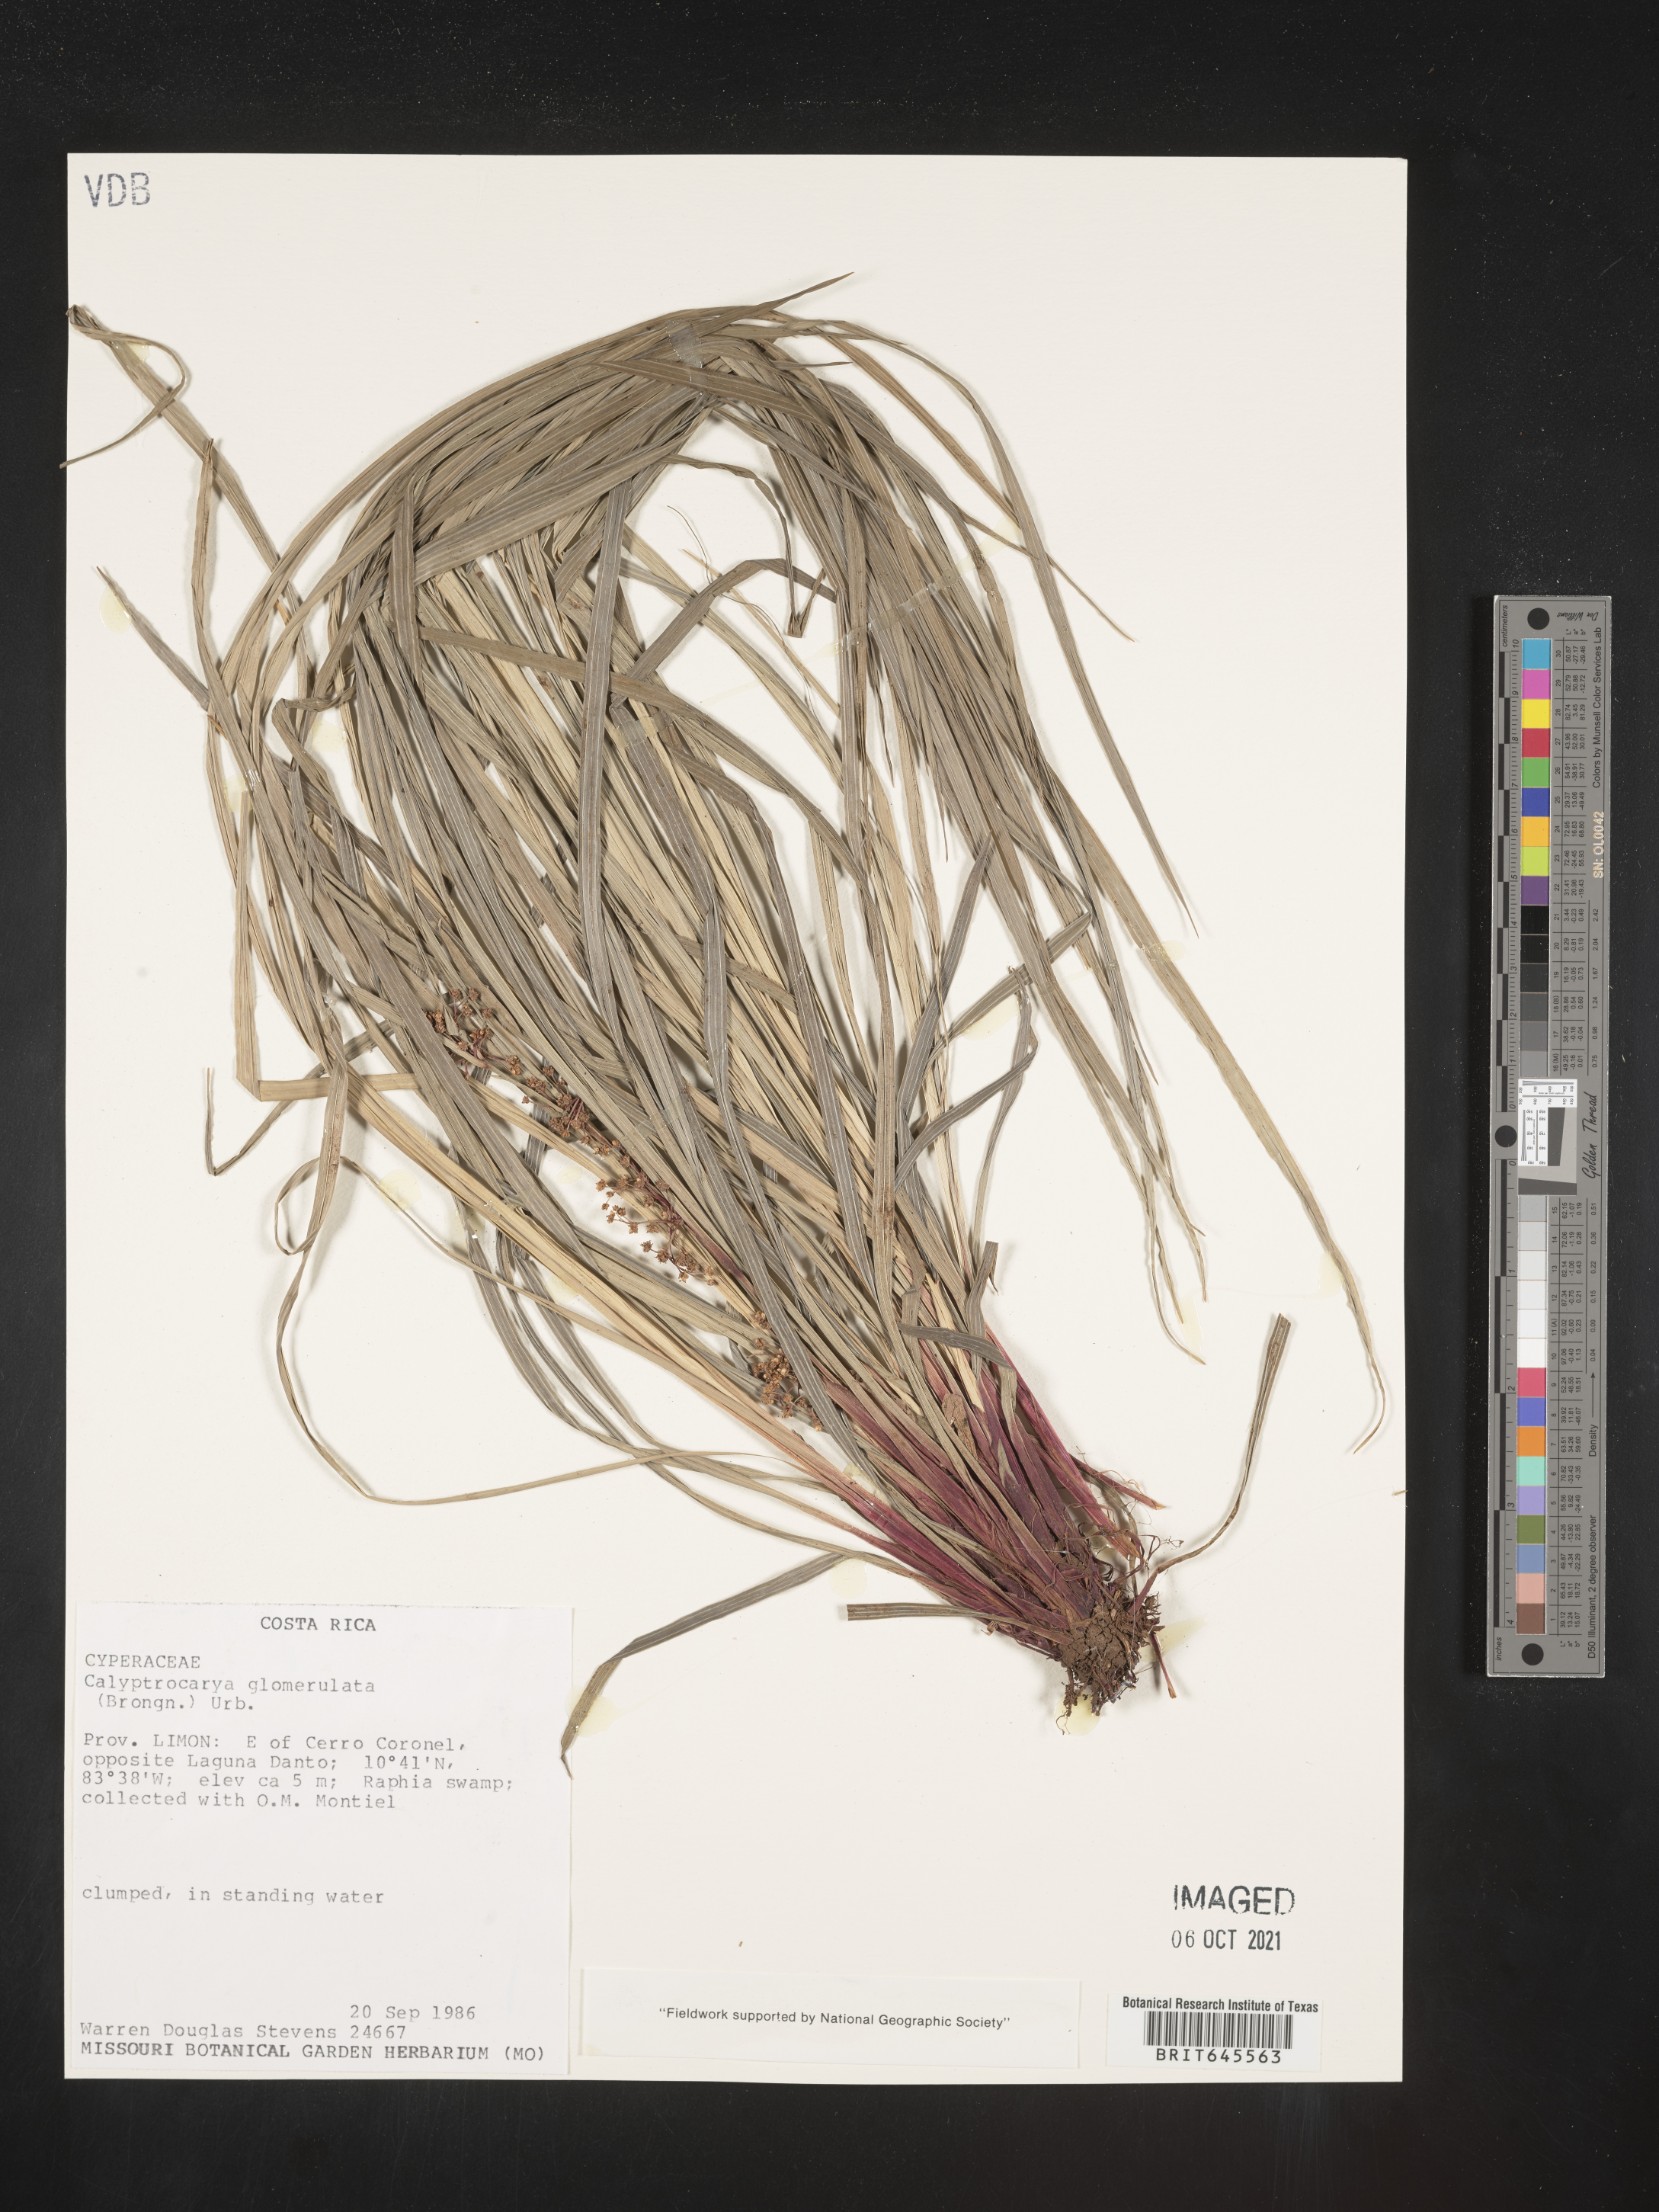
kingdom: Plantae
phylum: Tracheophyta
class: Liliopsida
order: Poales
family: Cyperaceae
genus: Calyptrocarya
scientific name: Calyptrocarya glomerulata
